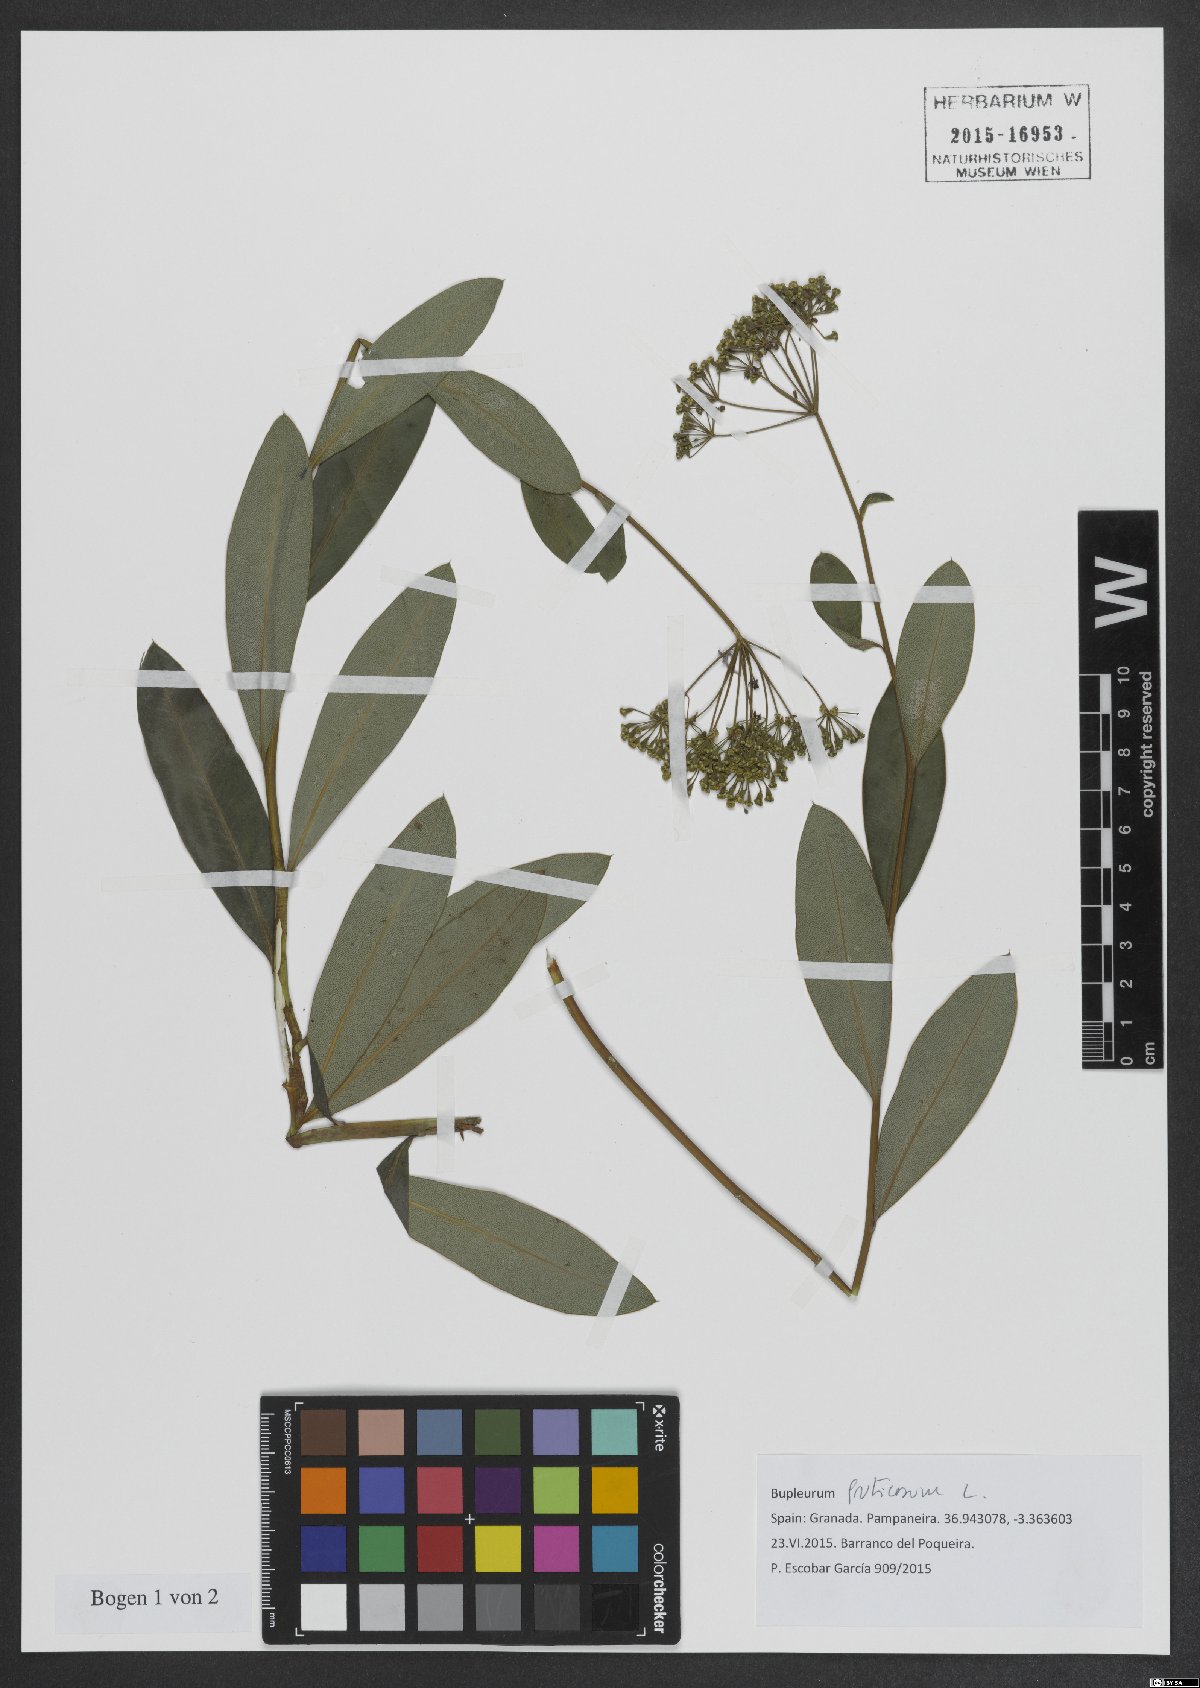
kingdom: Plantae
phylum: Tracheophyta
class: Magnoliopsida
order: Apiales
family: Apiaceae
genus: Bupleurum
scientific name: Bupleurum fruticosum
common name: Shrubby hare's-ear
